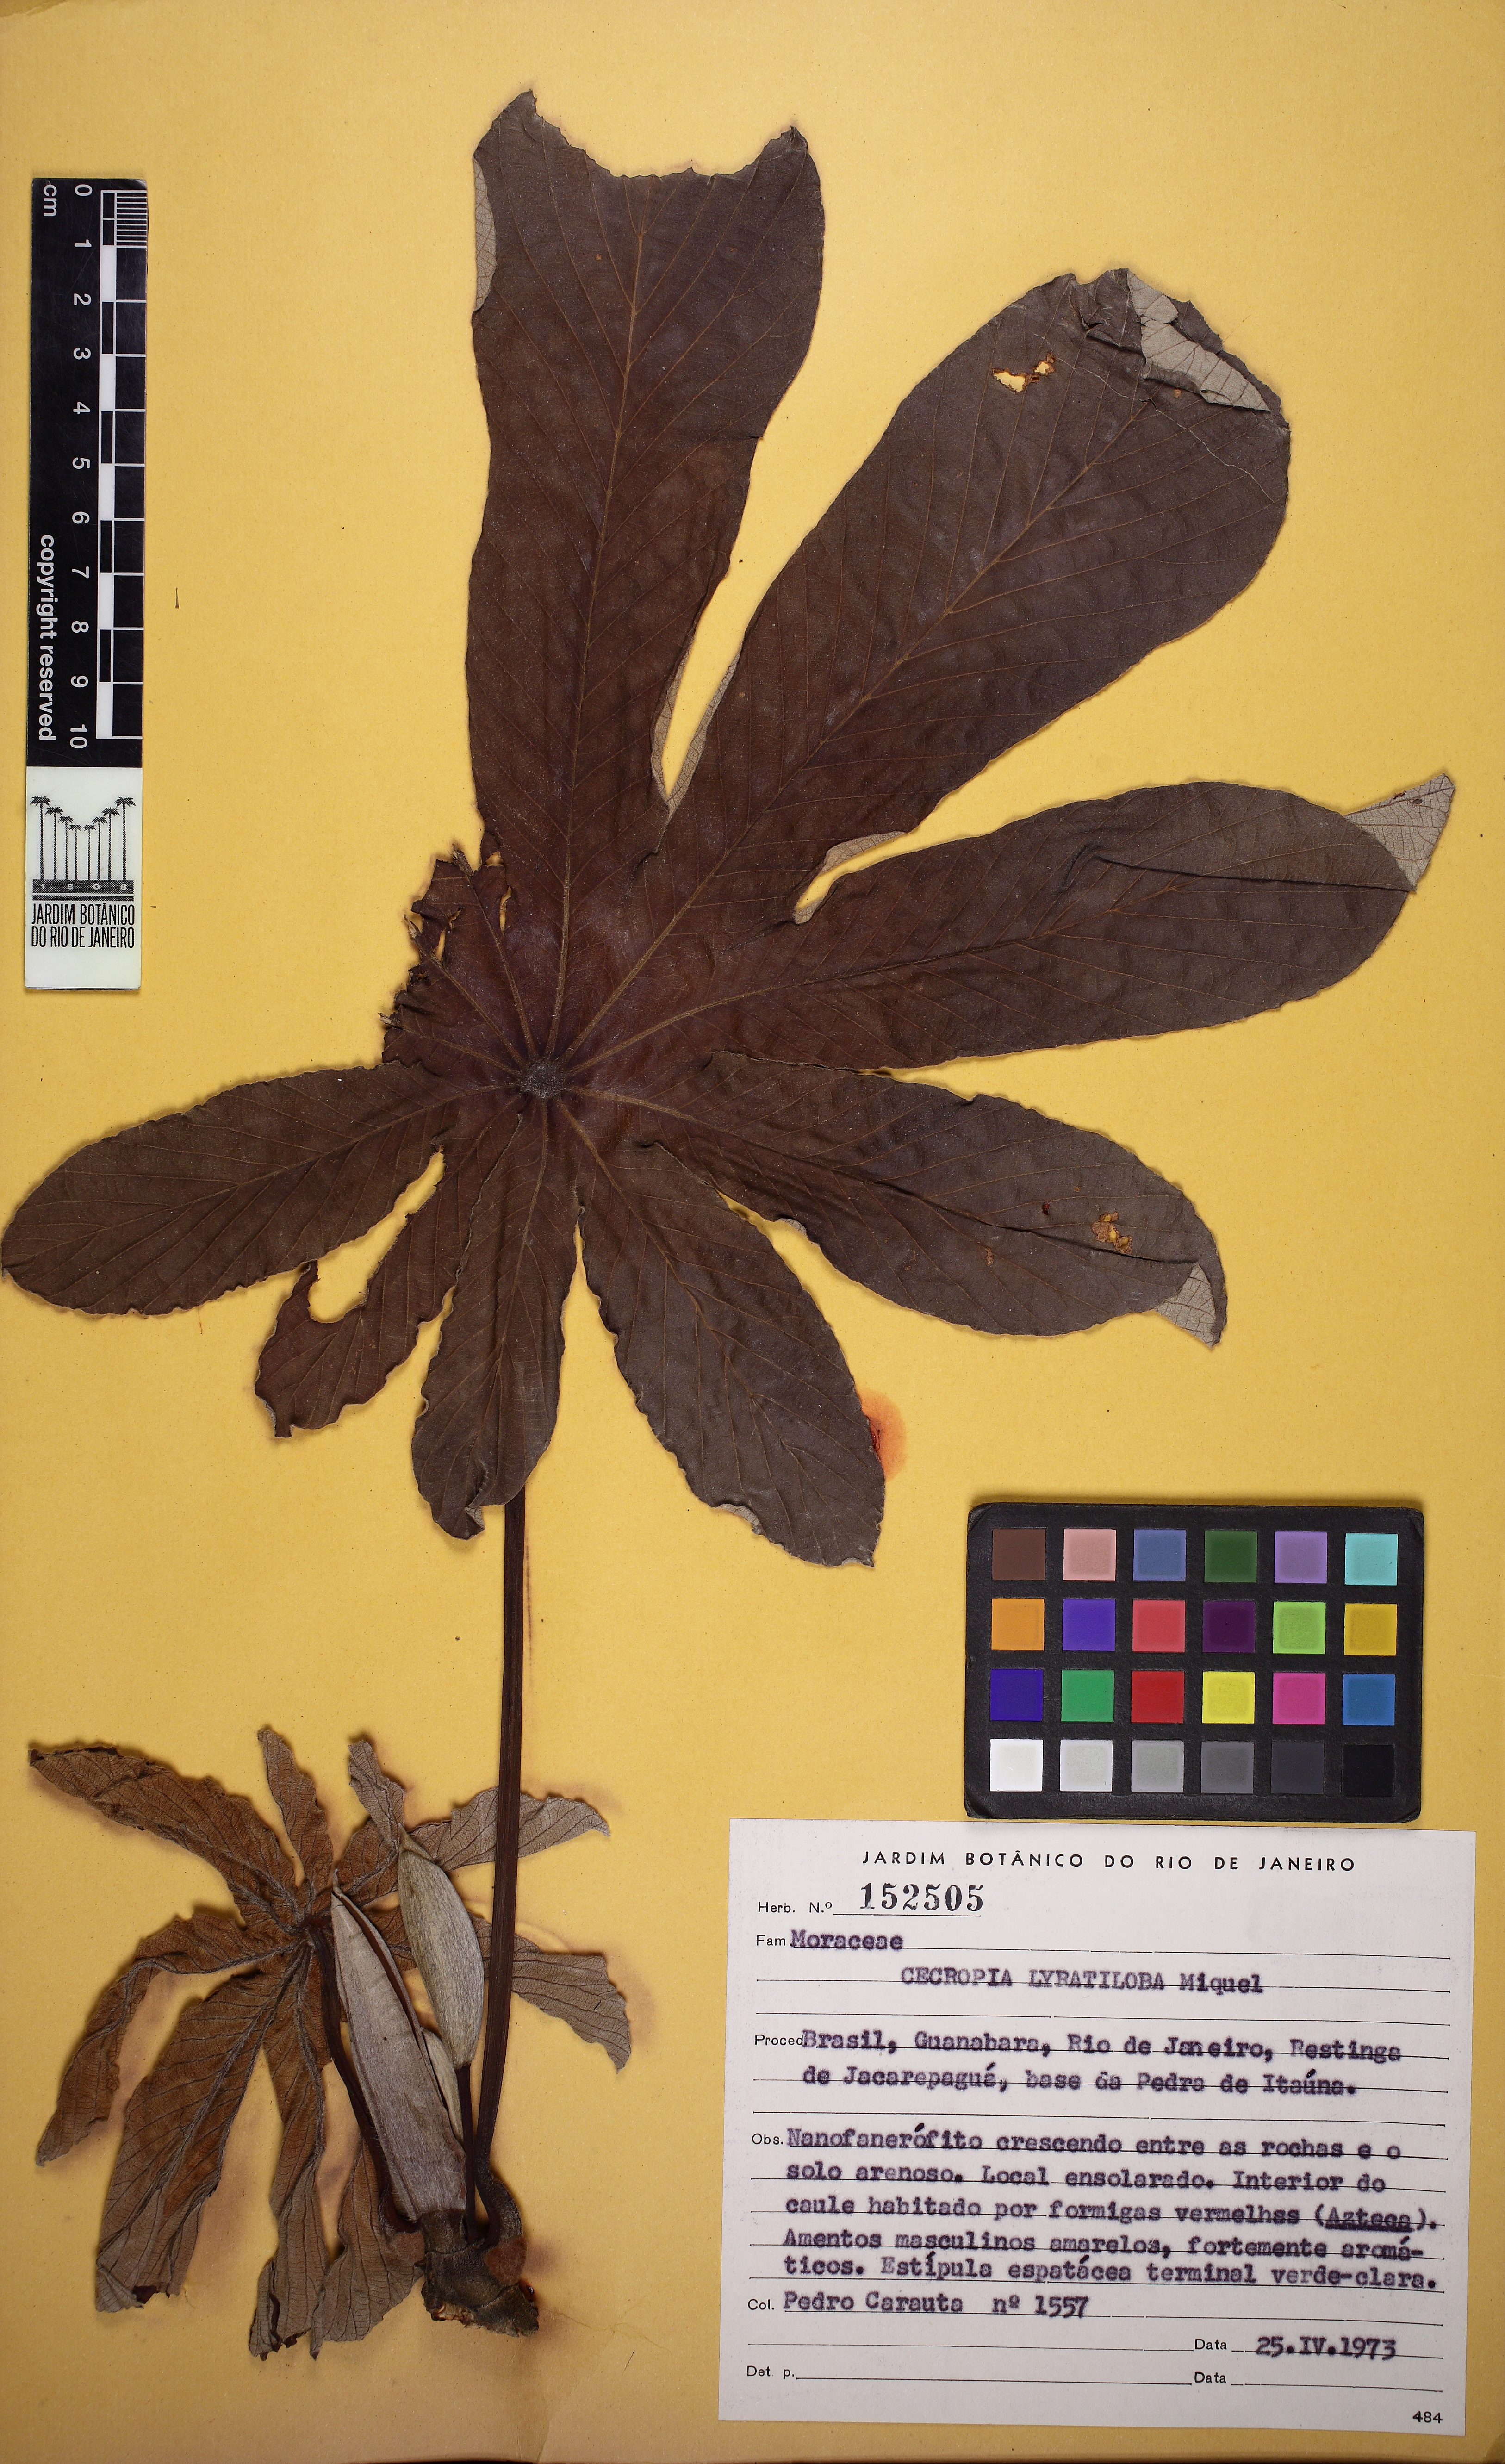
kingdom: Plantae
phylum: Tracheophyta
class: Magnoliopsida
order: Rosales
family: Urticaceae
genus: Cecropia
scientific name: Cecropia pachystachya
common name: Ambay pumpwood
